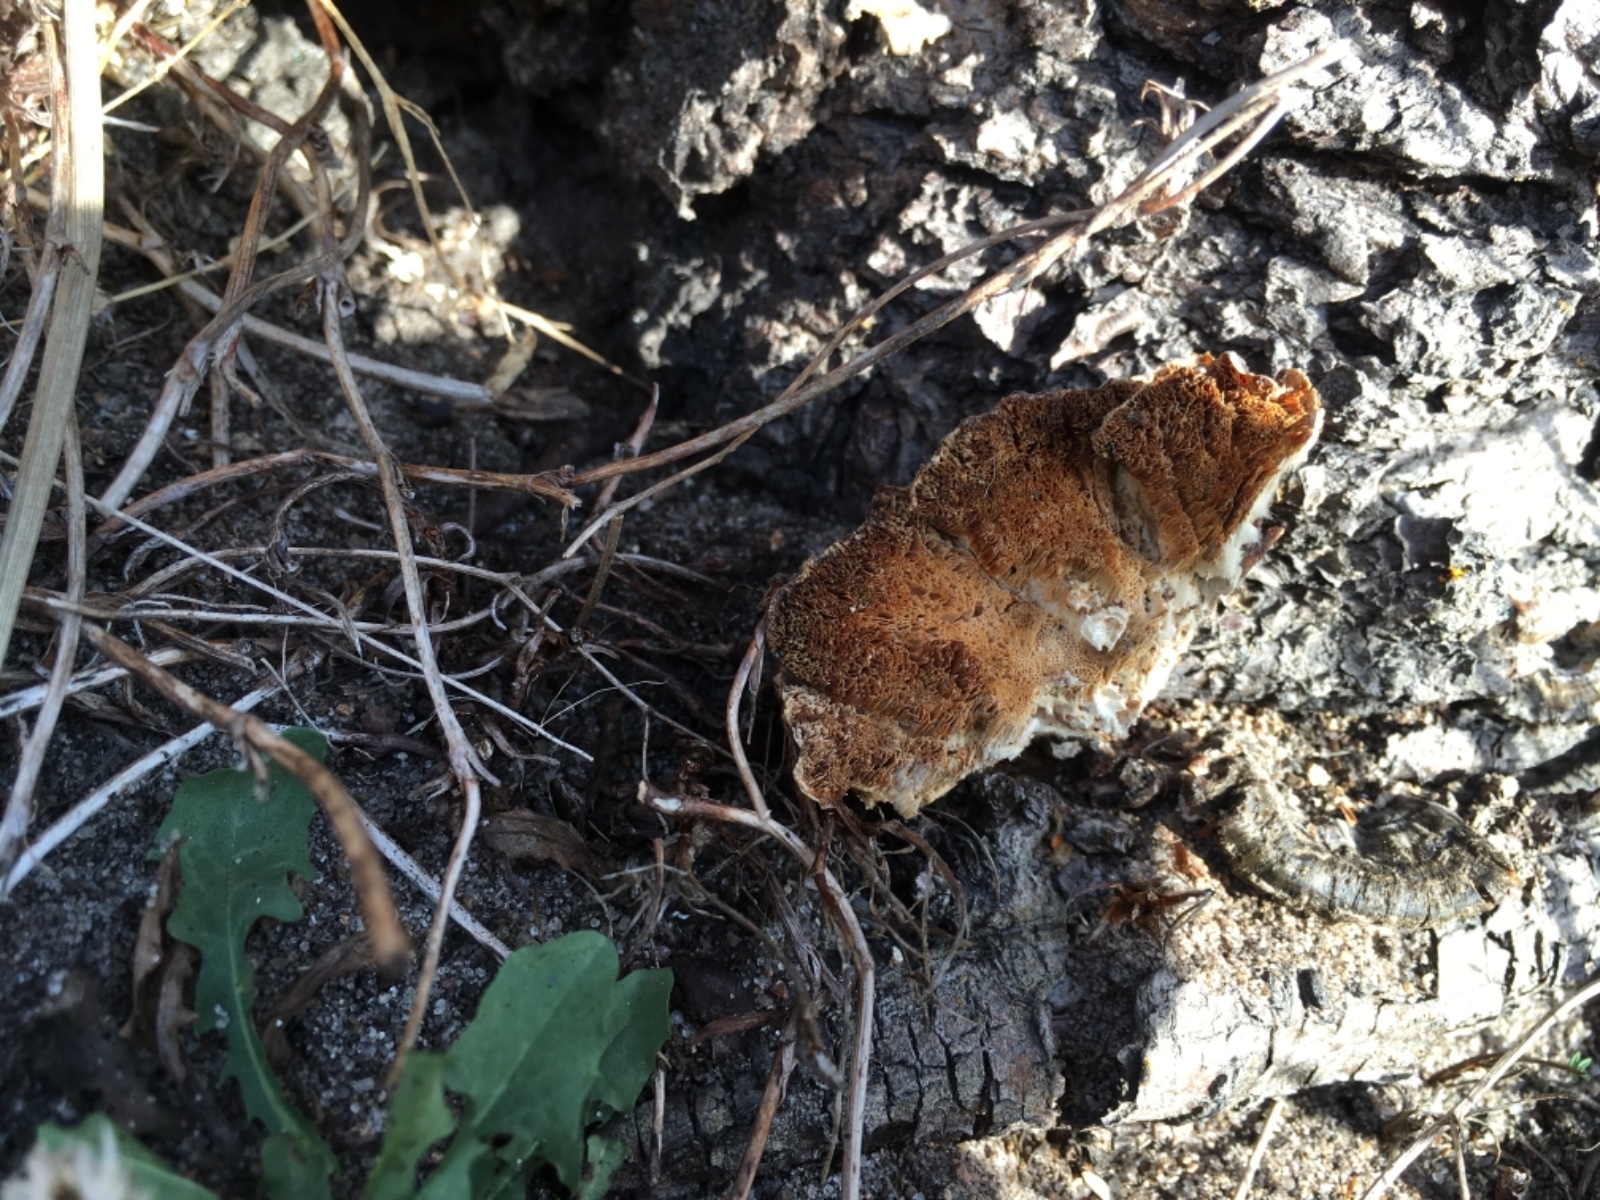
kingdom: Fungi
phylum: Basidiomycota
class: Agaricomycetes
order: Polyporales
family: Polyporaceae
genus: Trametes
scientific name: Trametes versicolor
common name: broget læderporesvamp
